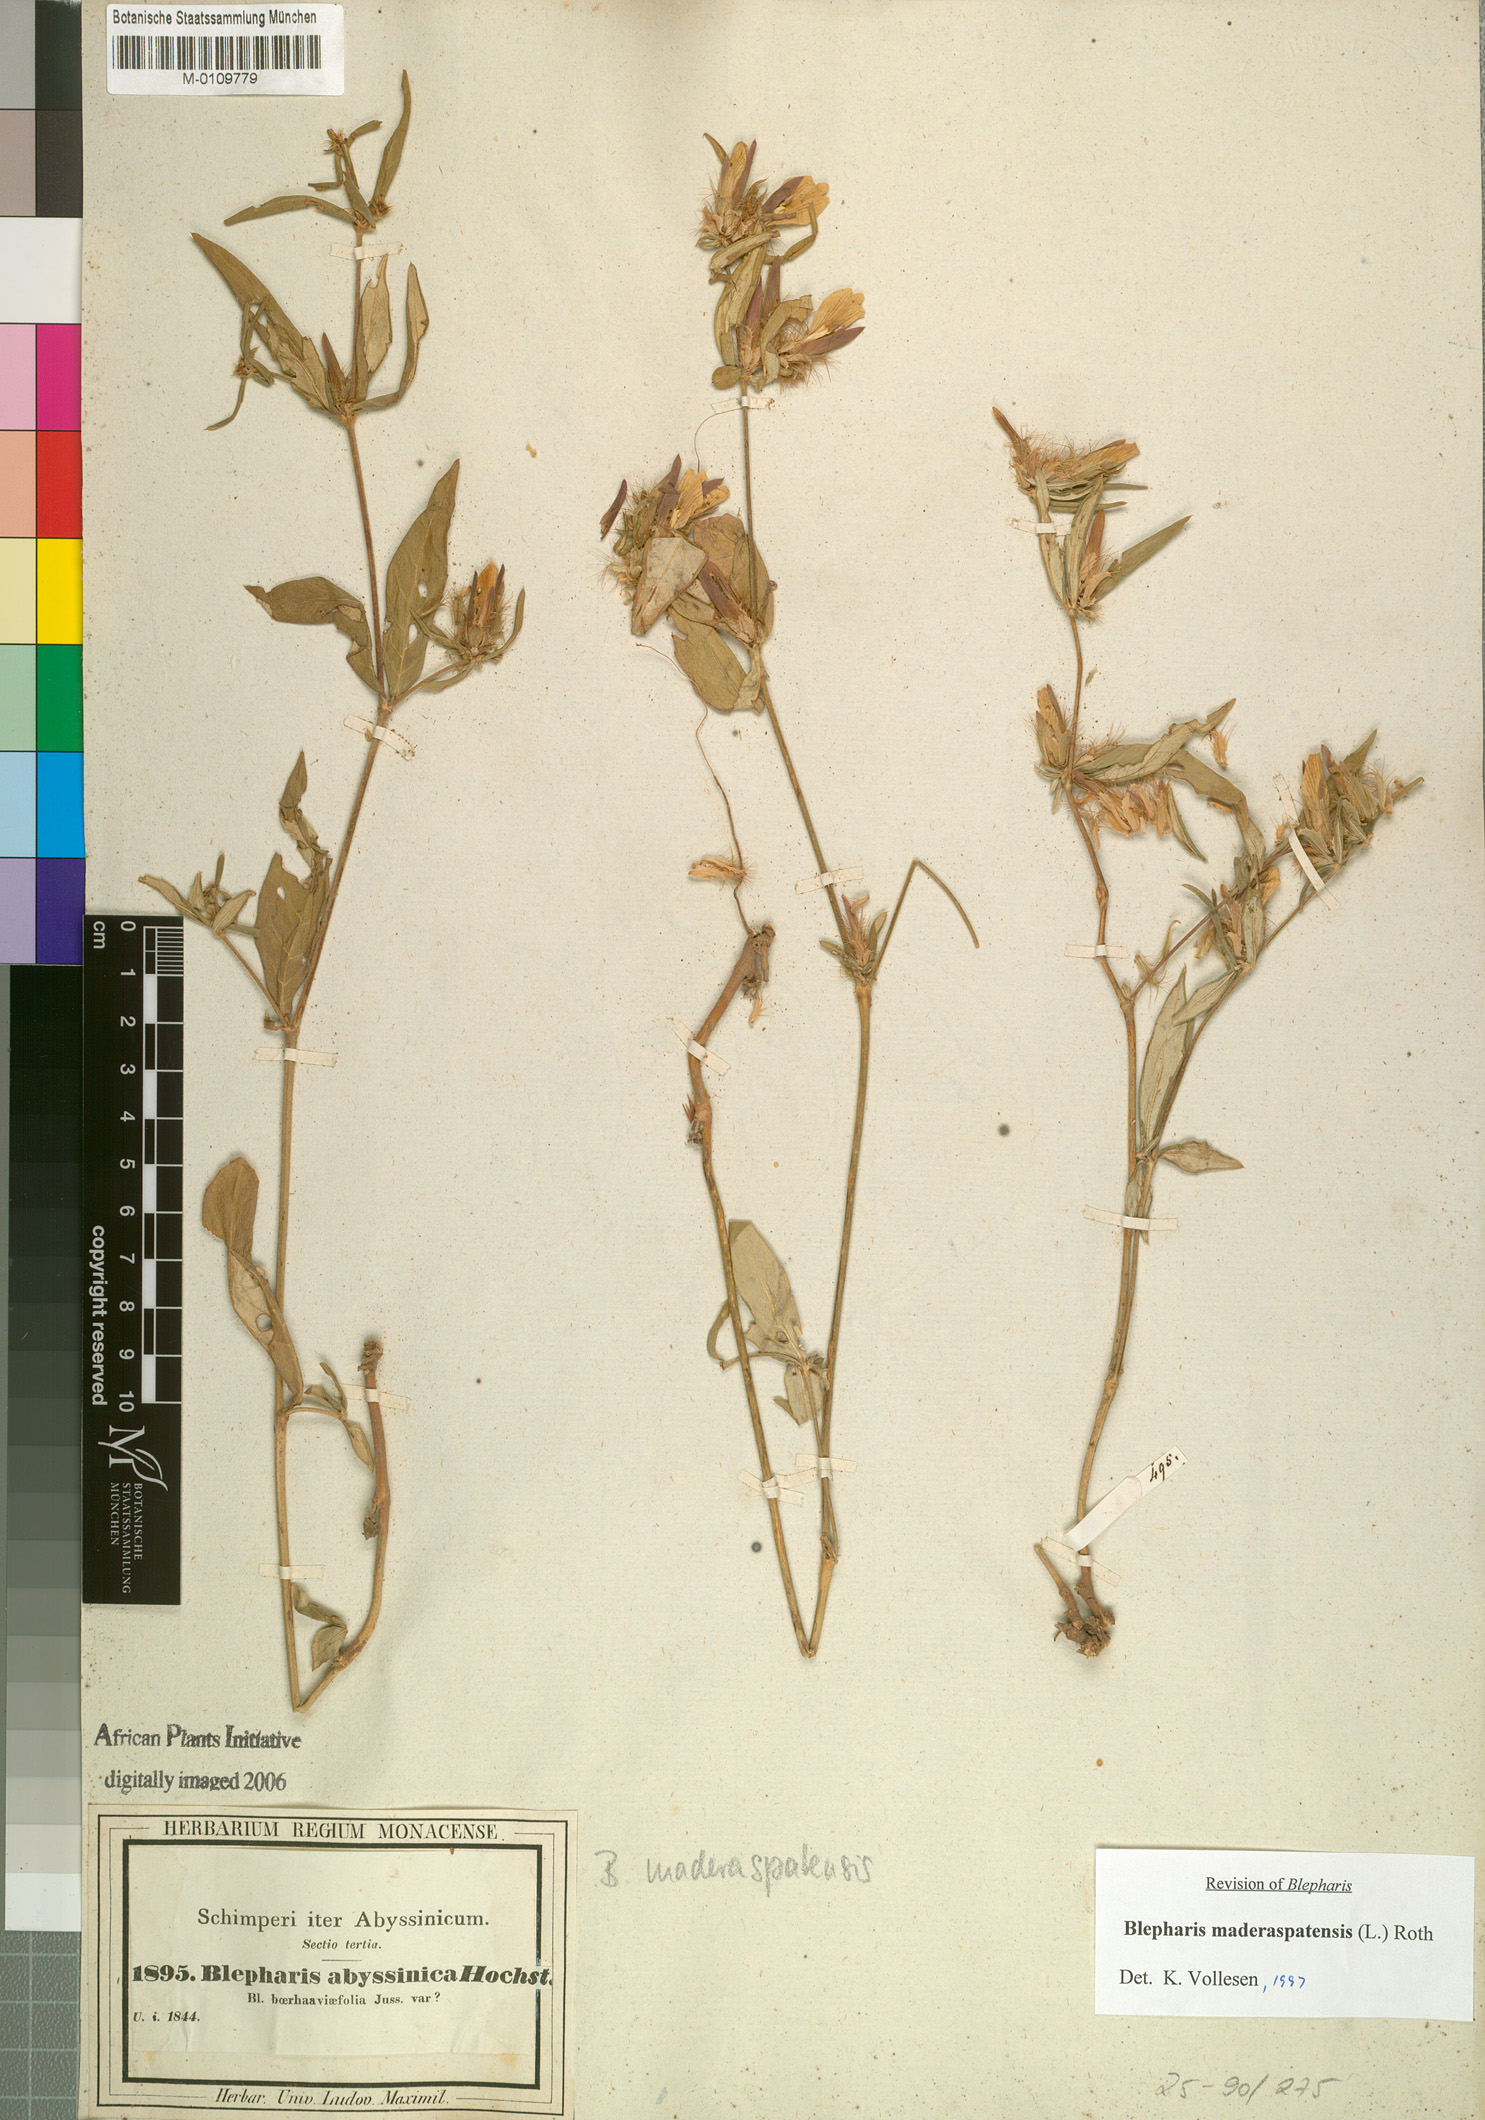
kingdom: Plantae
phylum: Tracheophyta
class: Magnoliopsida
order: Lamiales
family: Acanthaceae
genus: Blepharis
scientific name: Blepharis maderaspatensis
